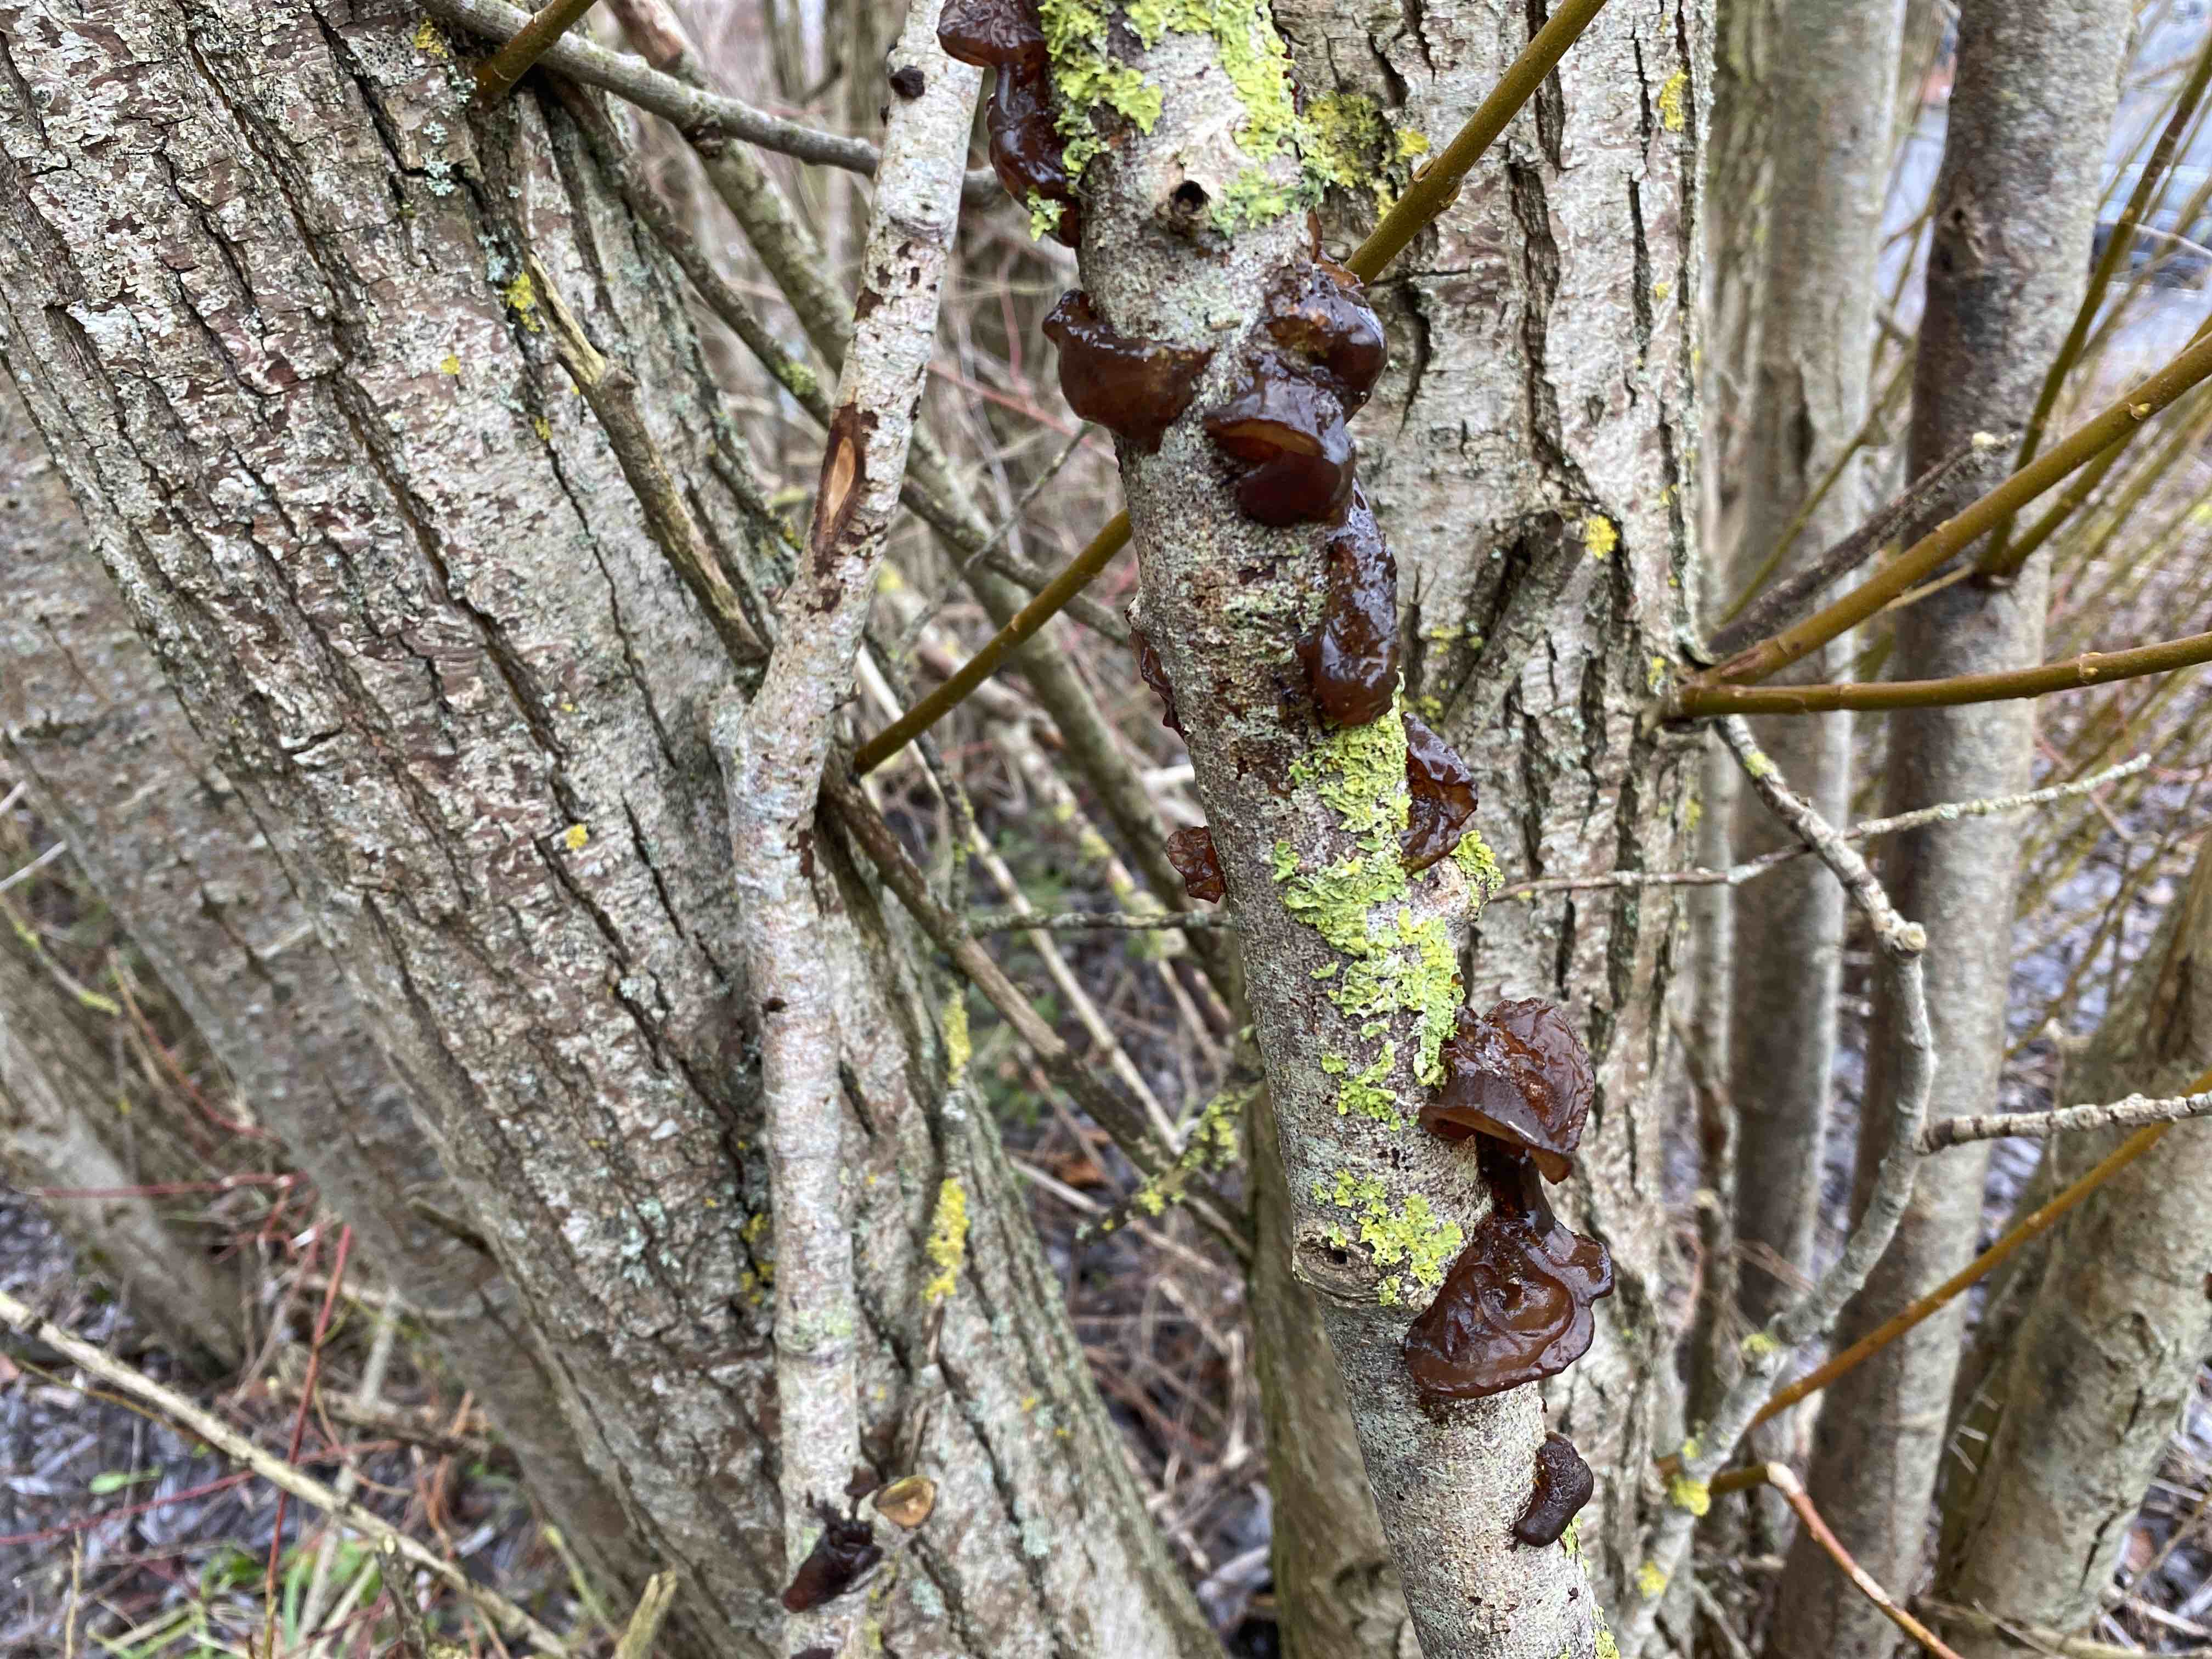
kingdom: Fungi
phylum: Basidiomycota
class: Agaricomycetes
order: Auriculariales
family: Auriculariaceae
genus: Exidia
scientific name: Exidia recisa
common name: pile-bævretop
